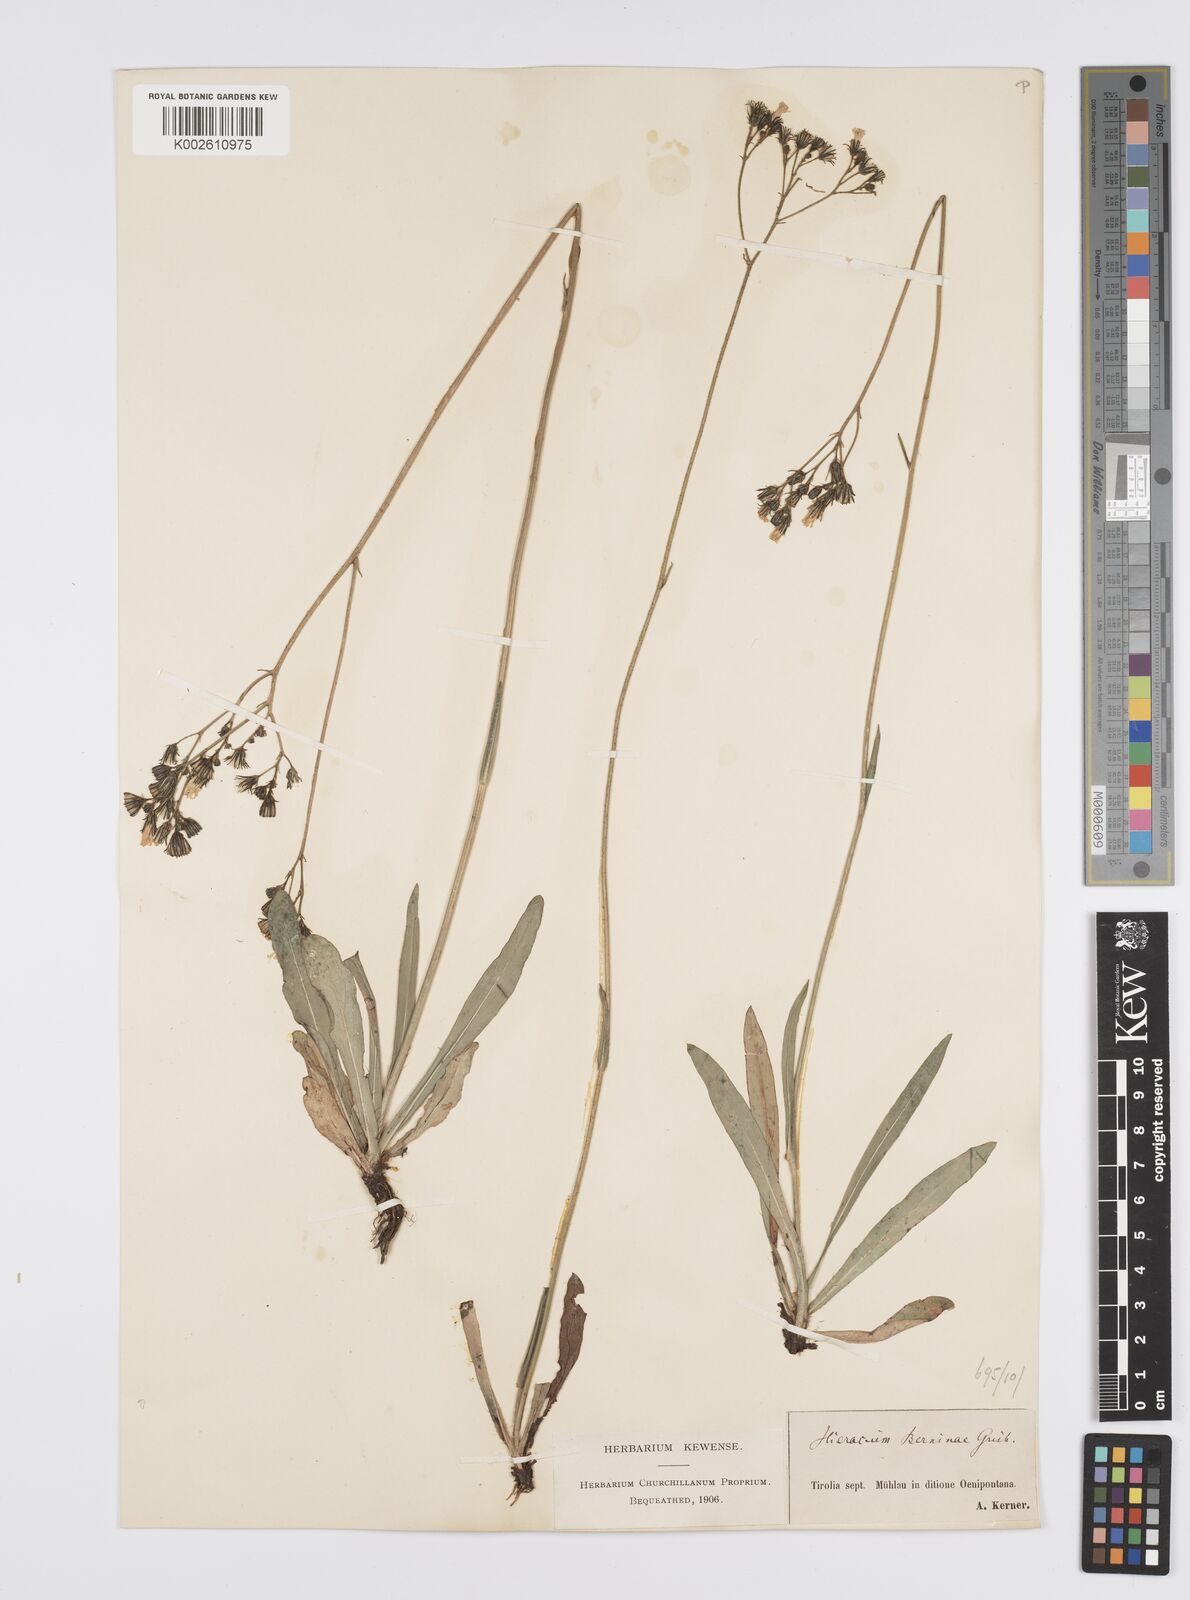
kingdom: Plantae
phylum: Tracheophyta
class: Magnoliopsida
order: Asterales
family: Asteraceae
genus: Pilosella
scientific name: Pilosella piloselloides
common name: Glaucous king-devil
